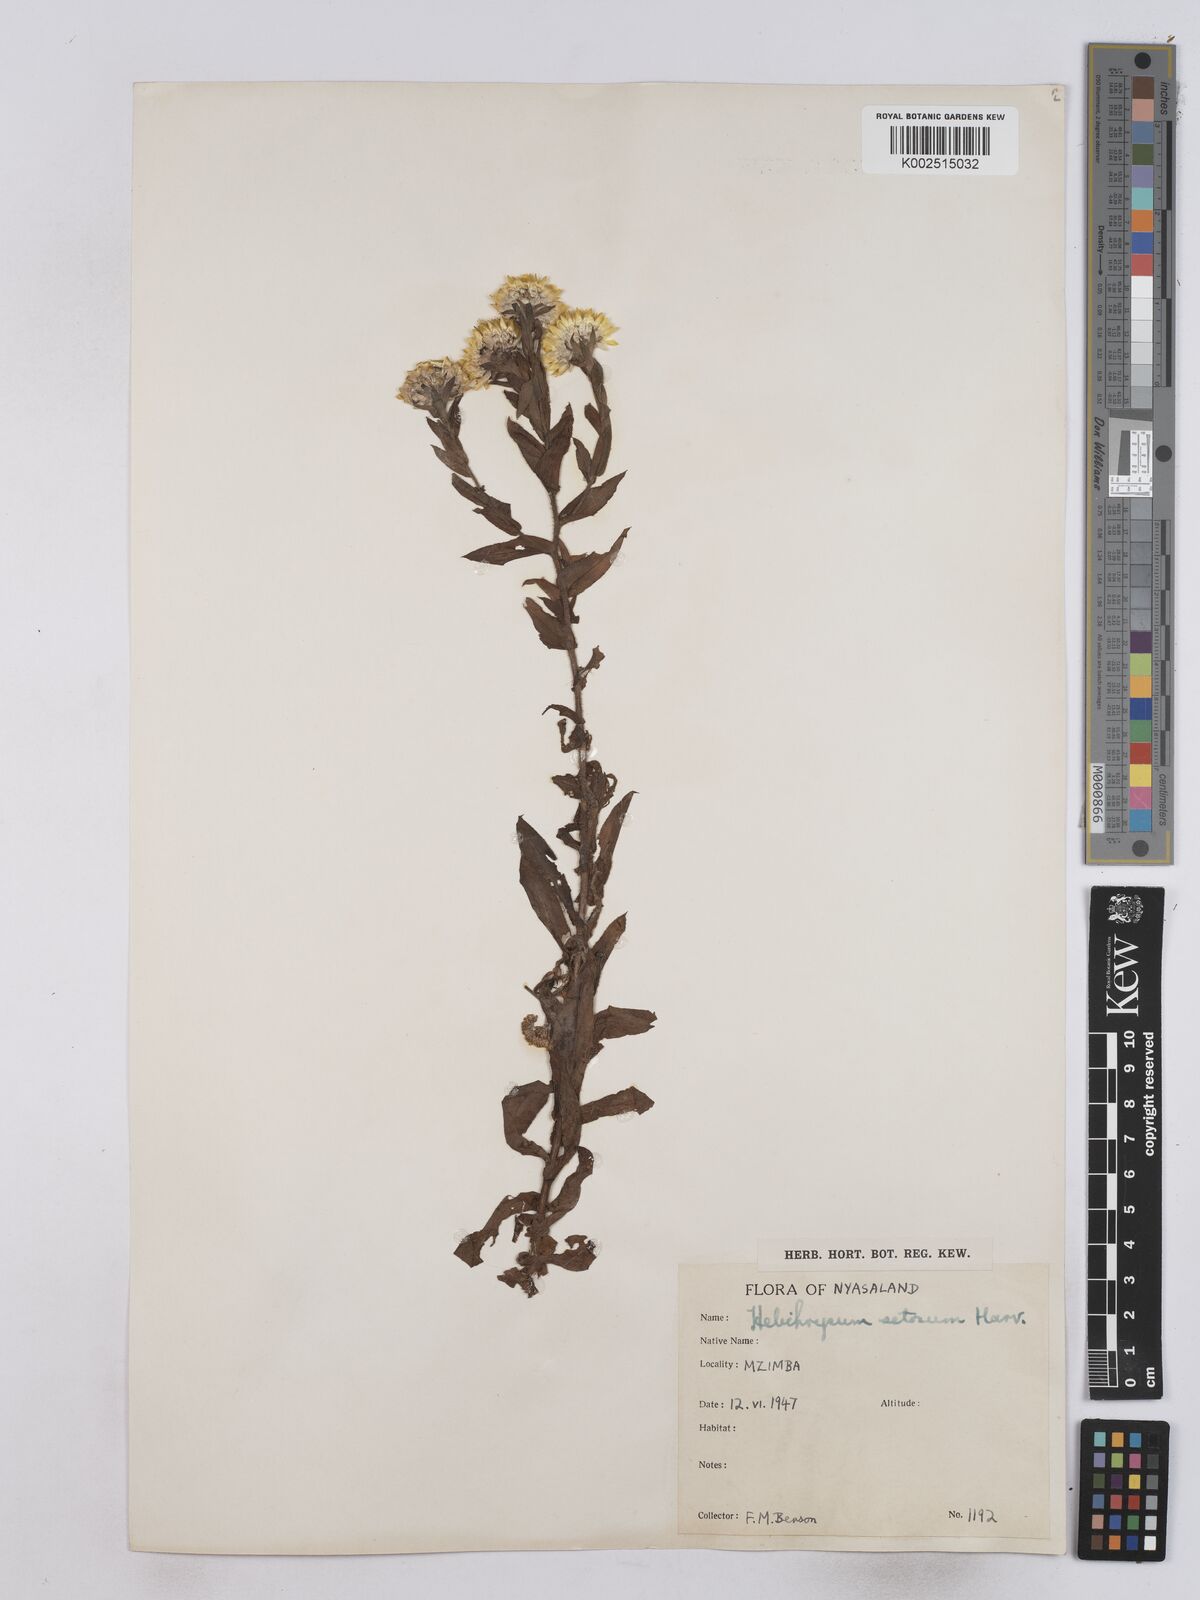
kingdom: Plantae
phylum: Tracheophyta
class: Magnoliopsida
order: Asterales
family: Asteraceae
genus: Helichrysum
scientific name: Helichrysum setosum
